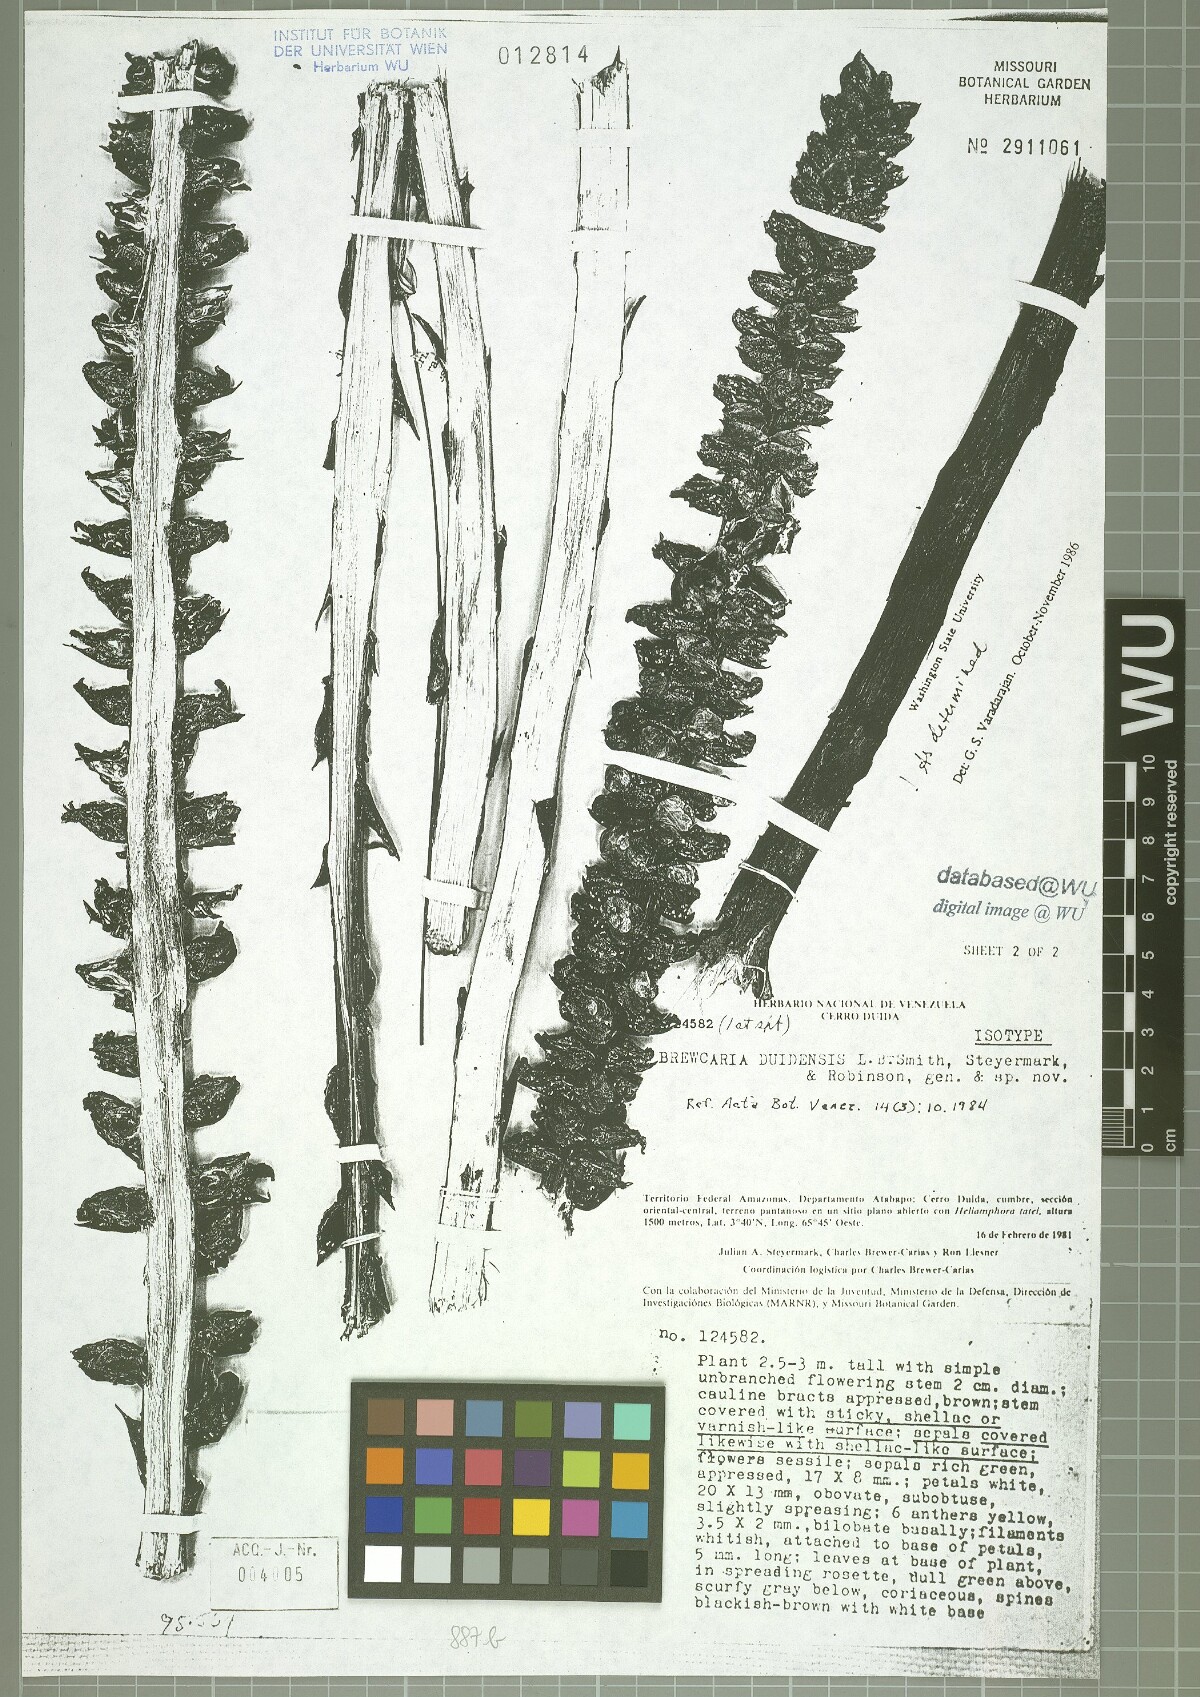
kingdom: Plantae
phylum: Tracheophyta
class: Liliopsida
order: Poales
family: Bromeliaceae
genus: Navia
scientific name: Navia duidensis
